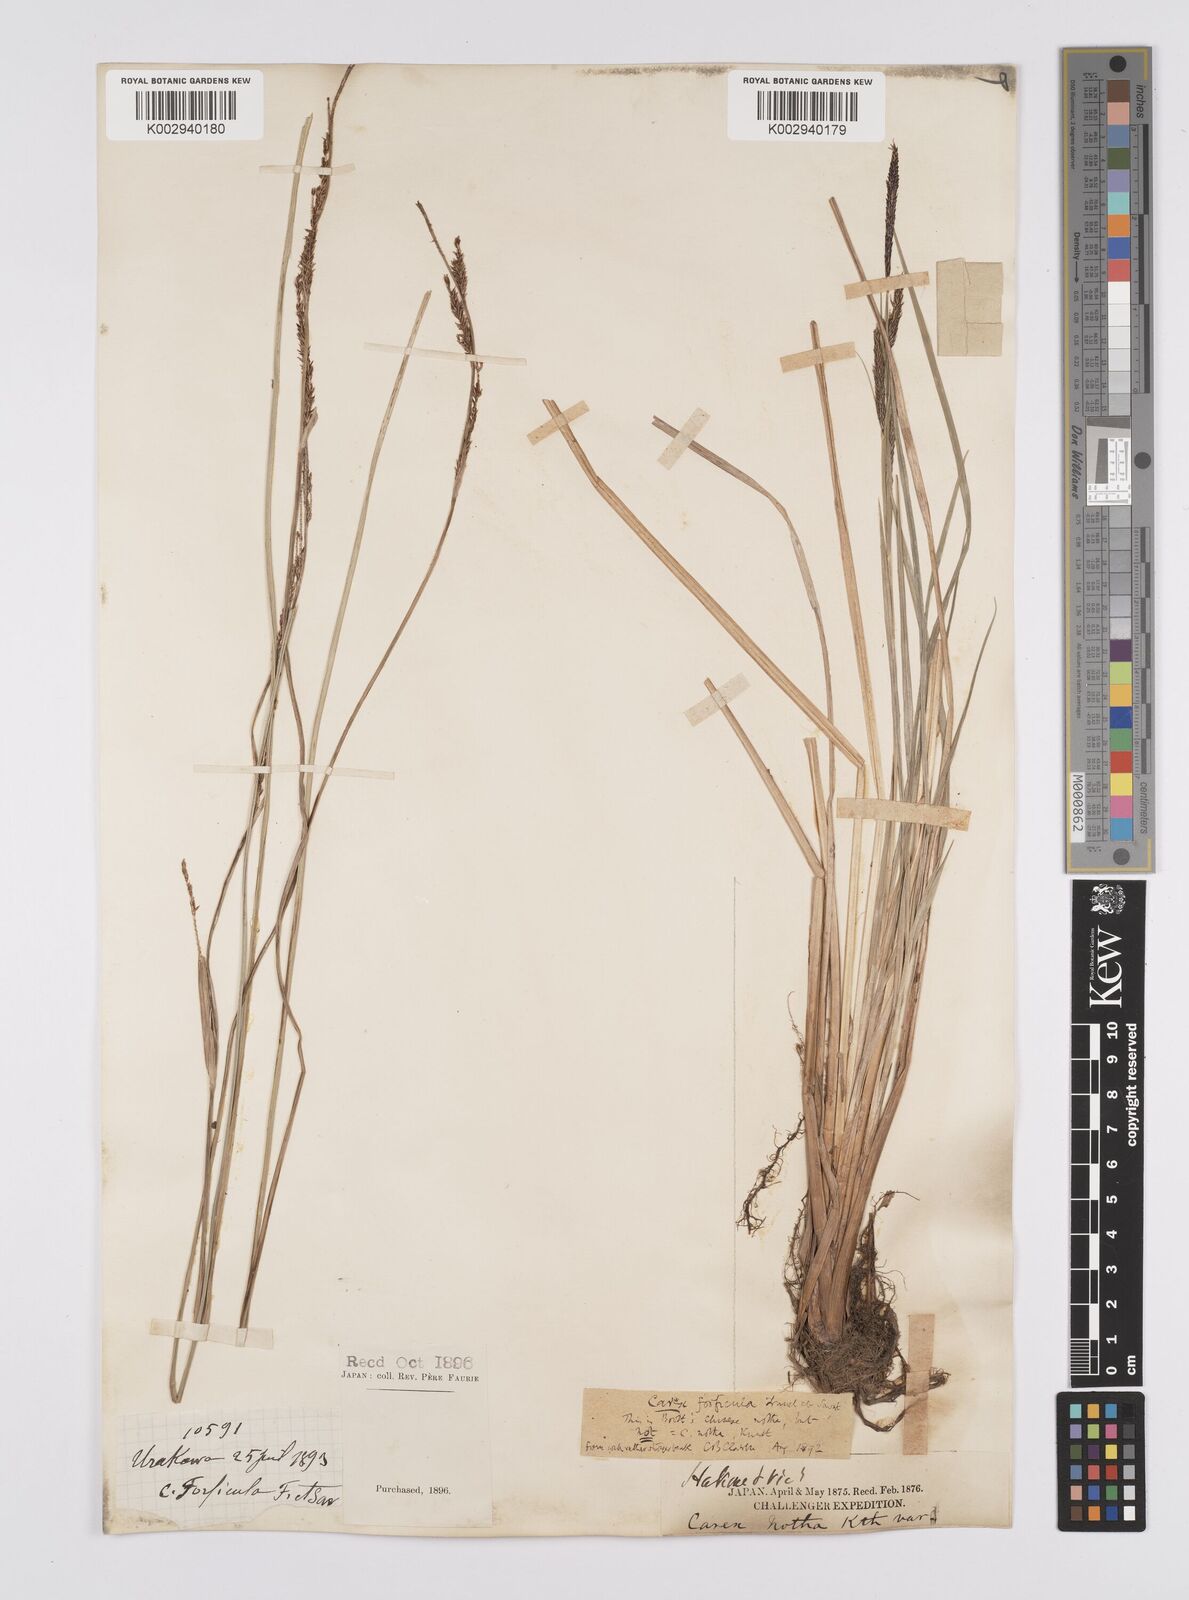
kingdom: Plantae
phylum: Tracheophyta
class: Liliopsida
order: Poales
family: Cyperaceae
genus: Carex
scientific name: Carex forficula
